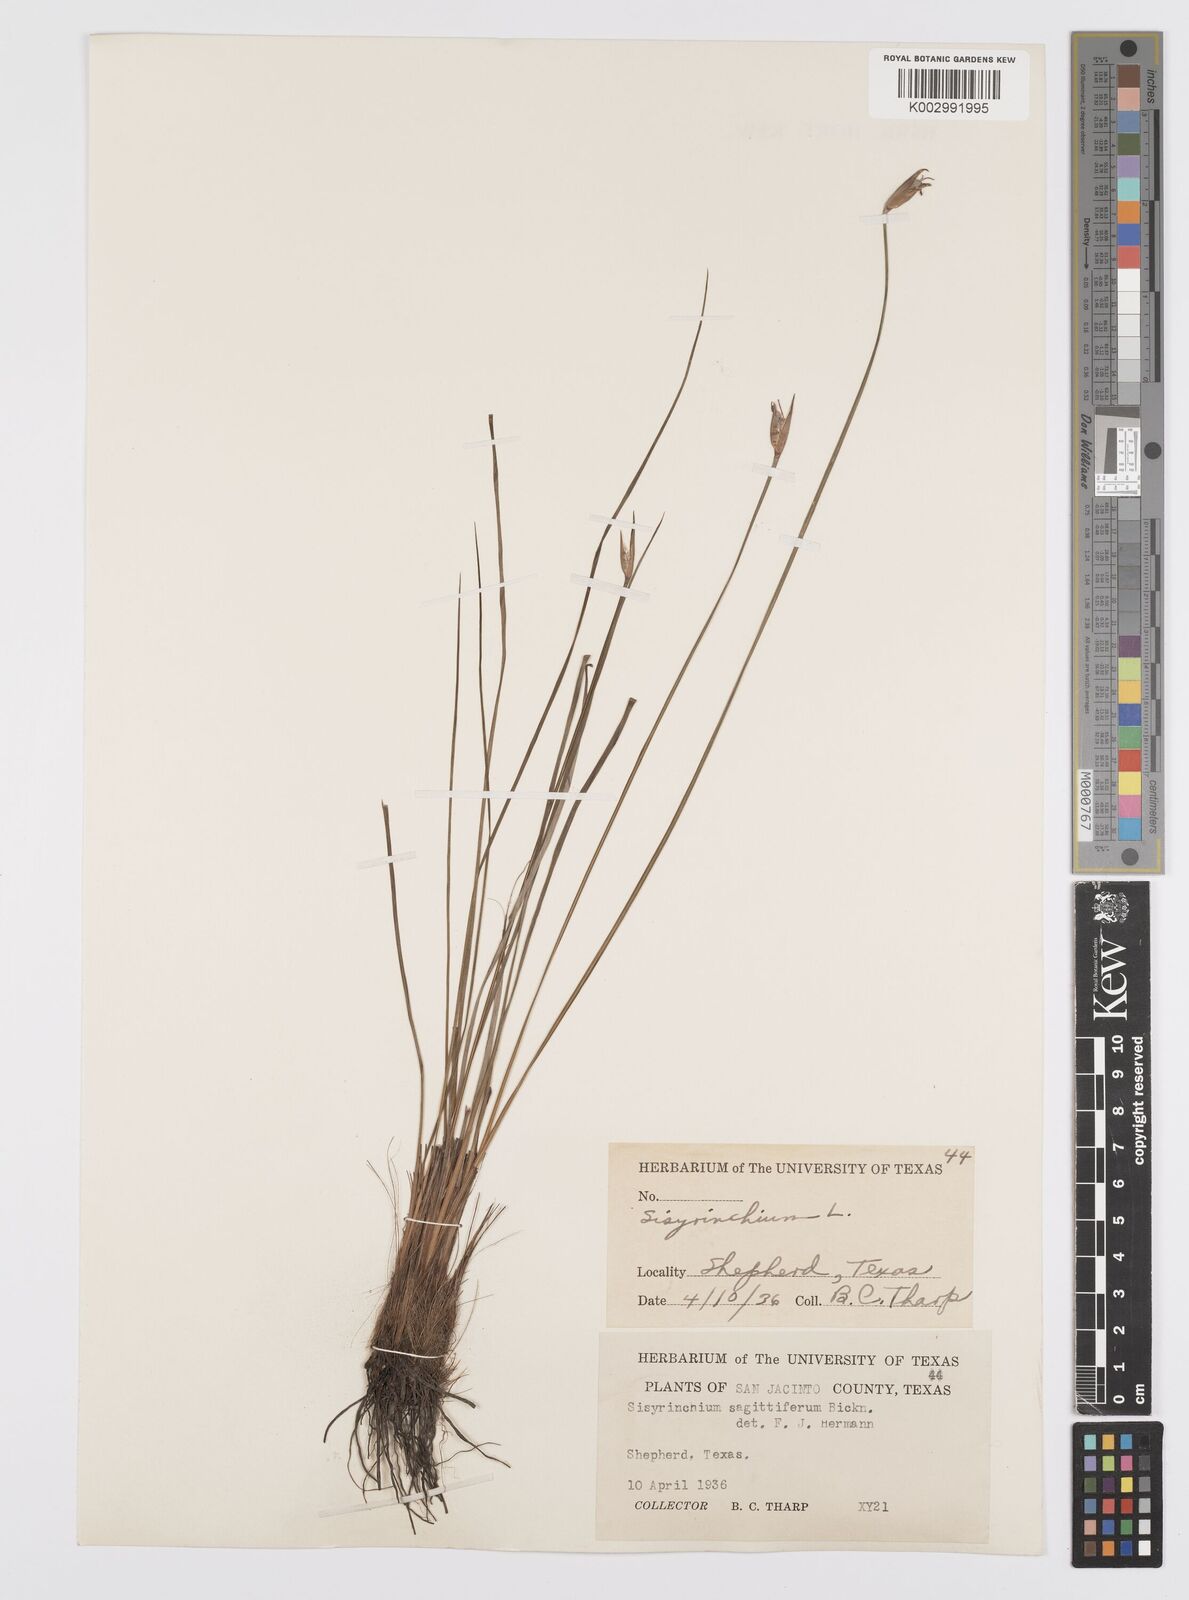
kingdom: Plantae
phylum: Tracheophyta
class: Liliopsida
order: Asparagales
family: Iridaceae
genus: Sisyrinchium
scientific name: Sisyrinchium sagittiferum
